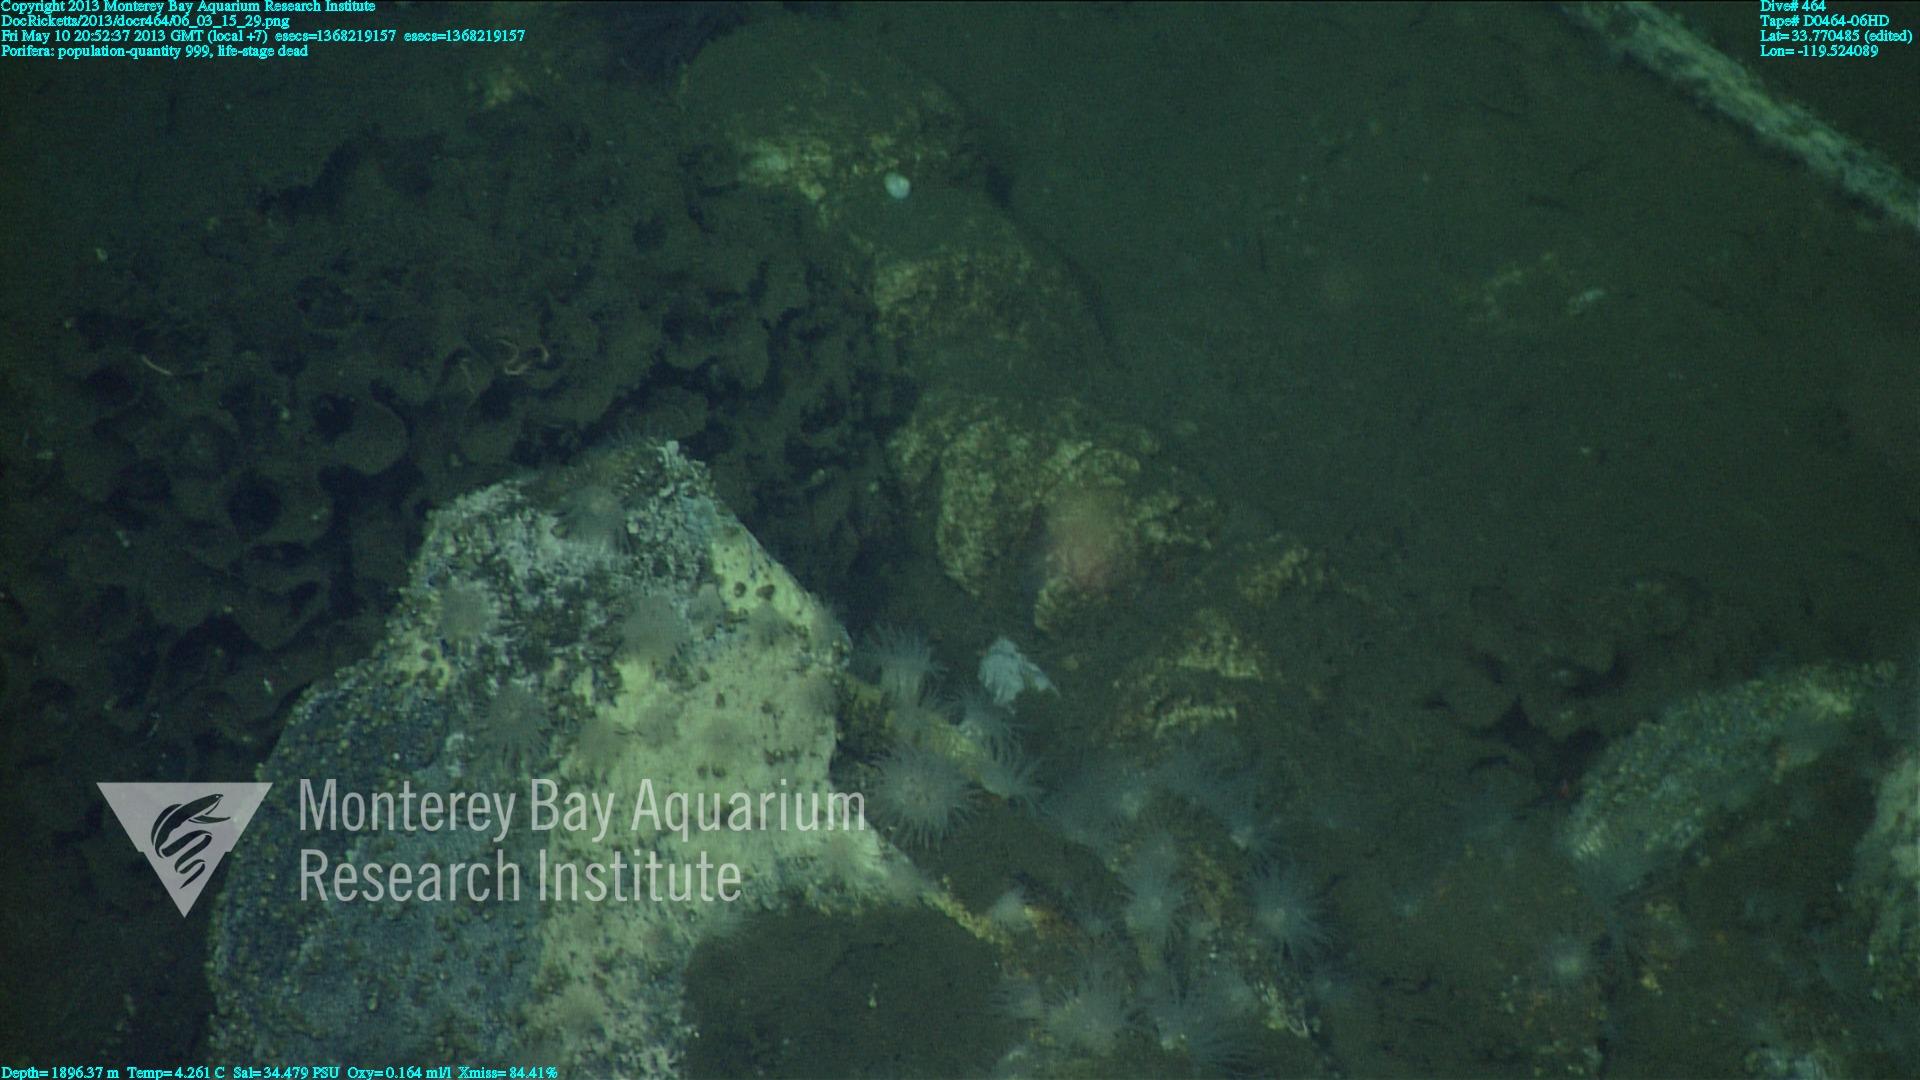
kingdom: Animalia
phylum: Porifera
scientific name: Porifera
